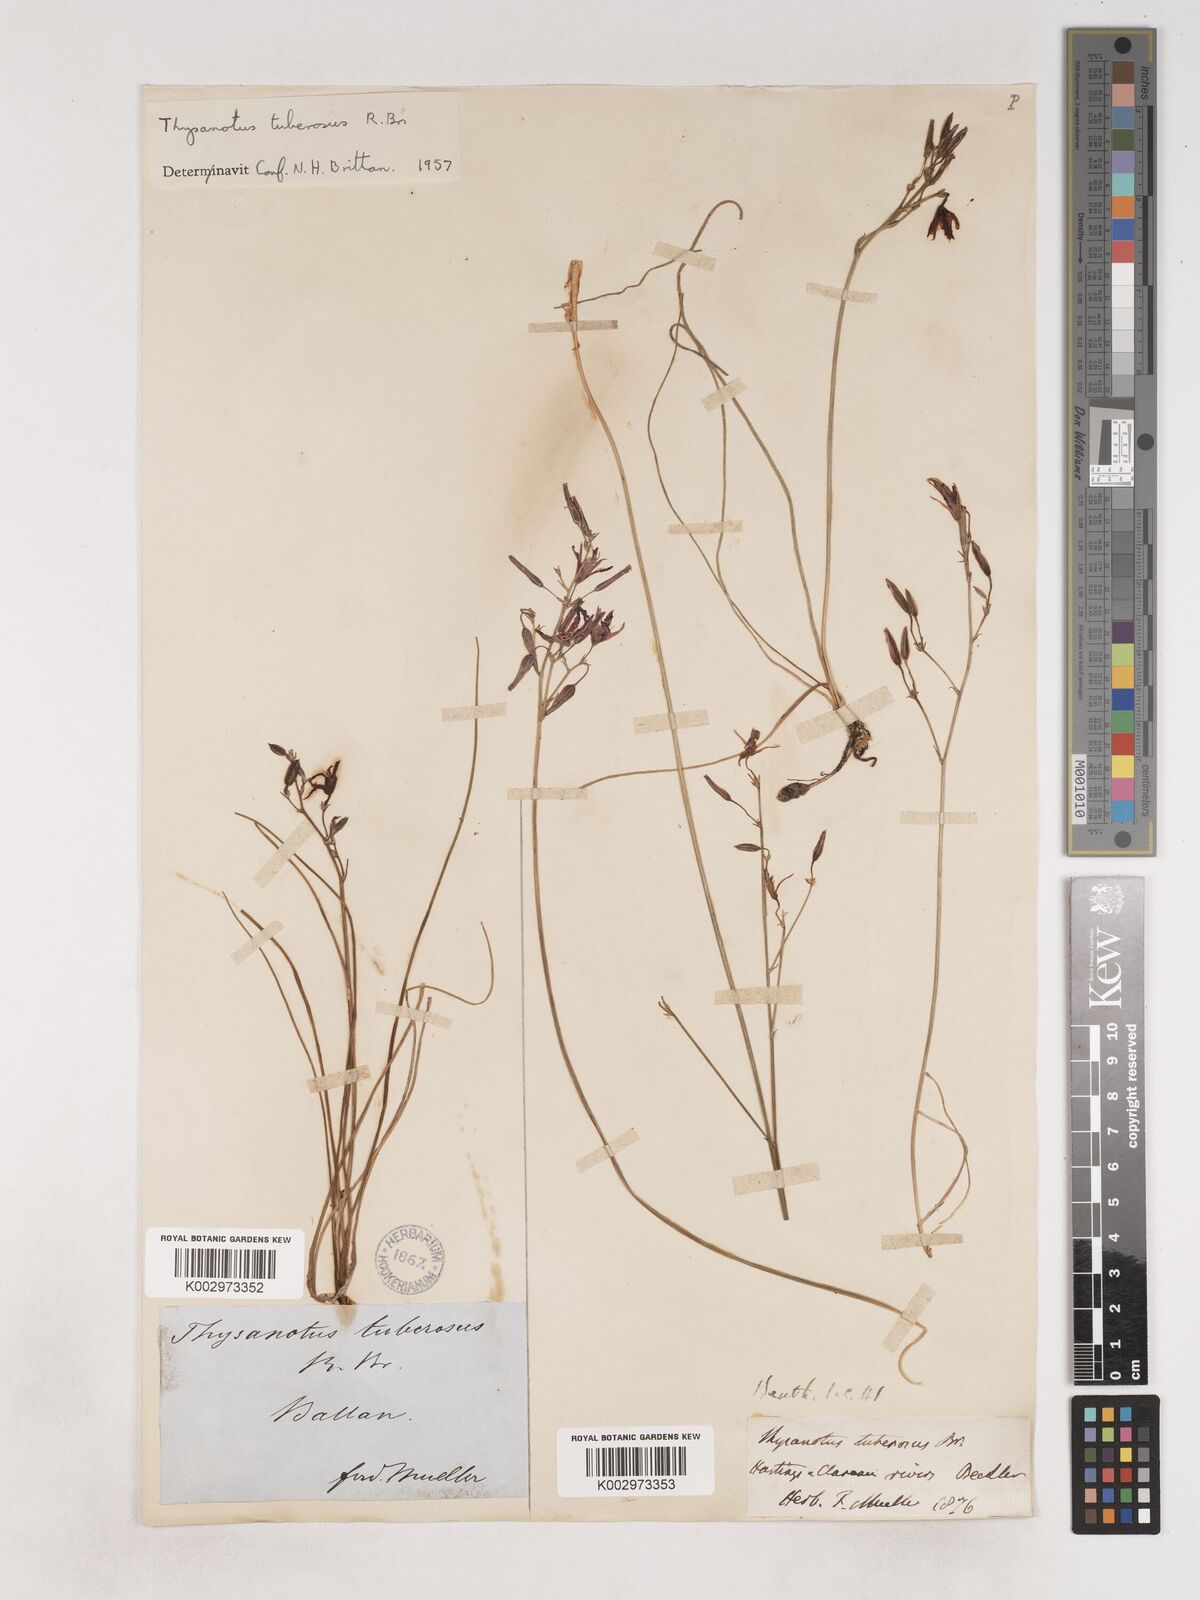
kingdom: Plantae
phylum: Tracheophyta
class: Liliopsida
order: Asparagales
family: Asparagaceae
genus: Thysanotus
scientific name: Thysanotus tuberosus
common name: Common fringed-lily
